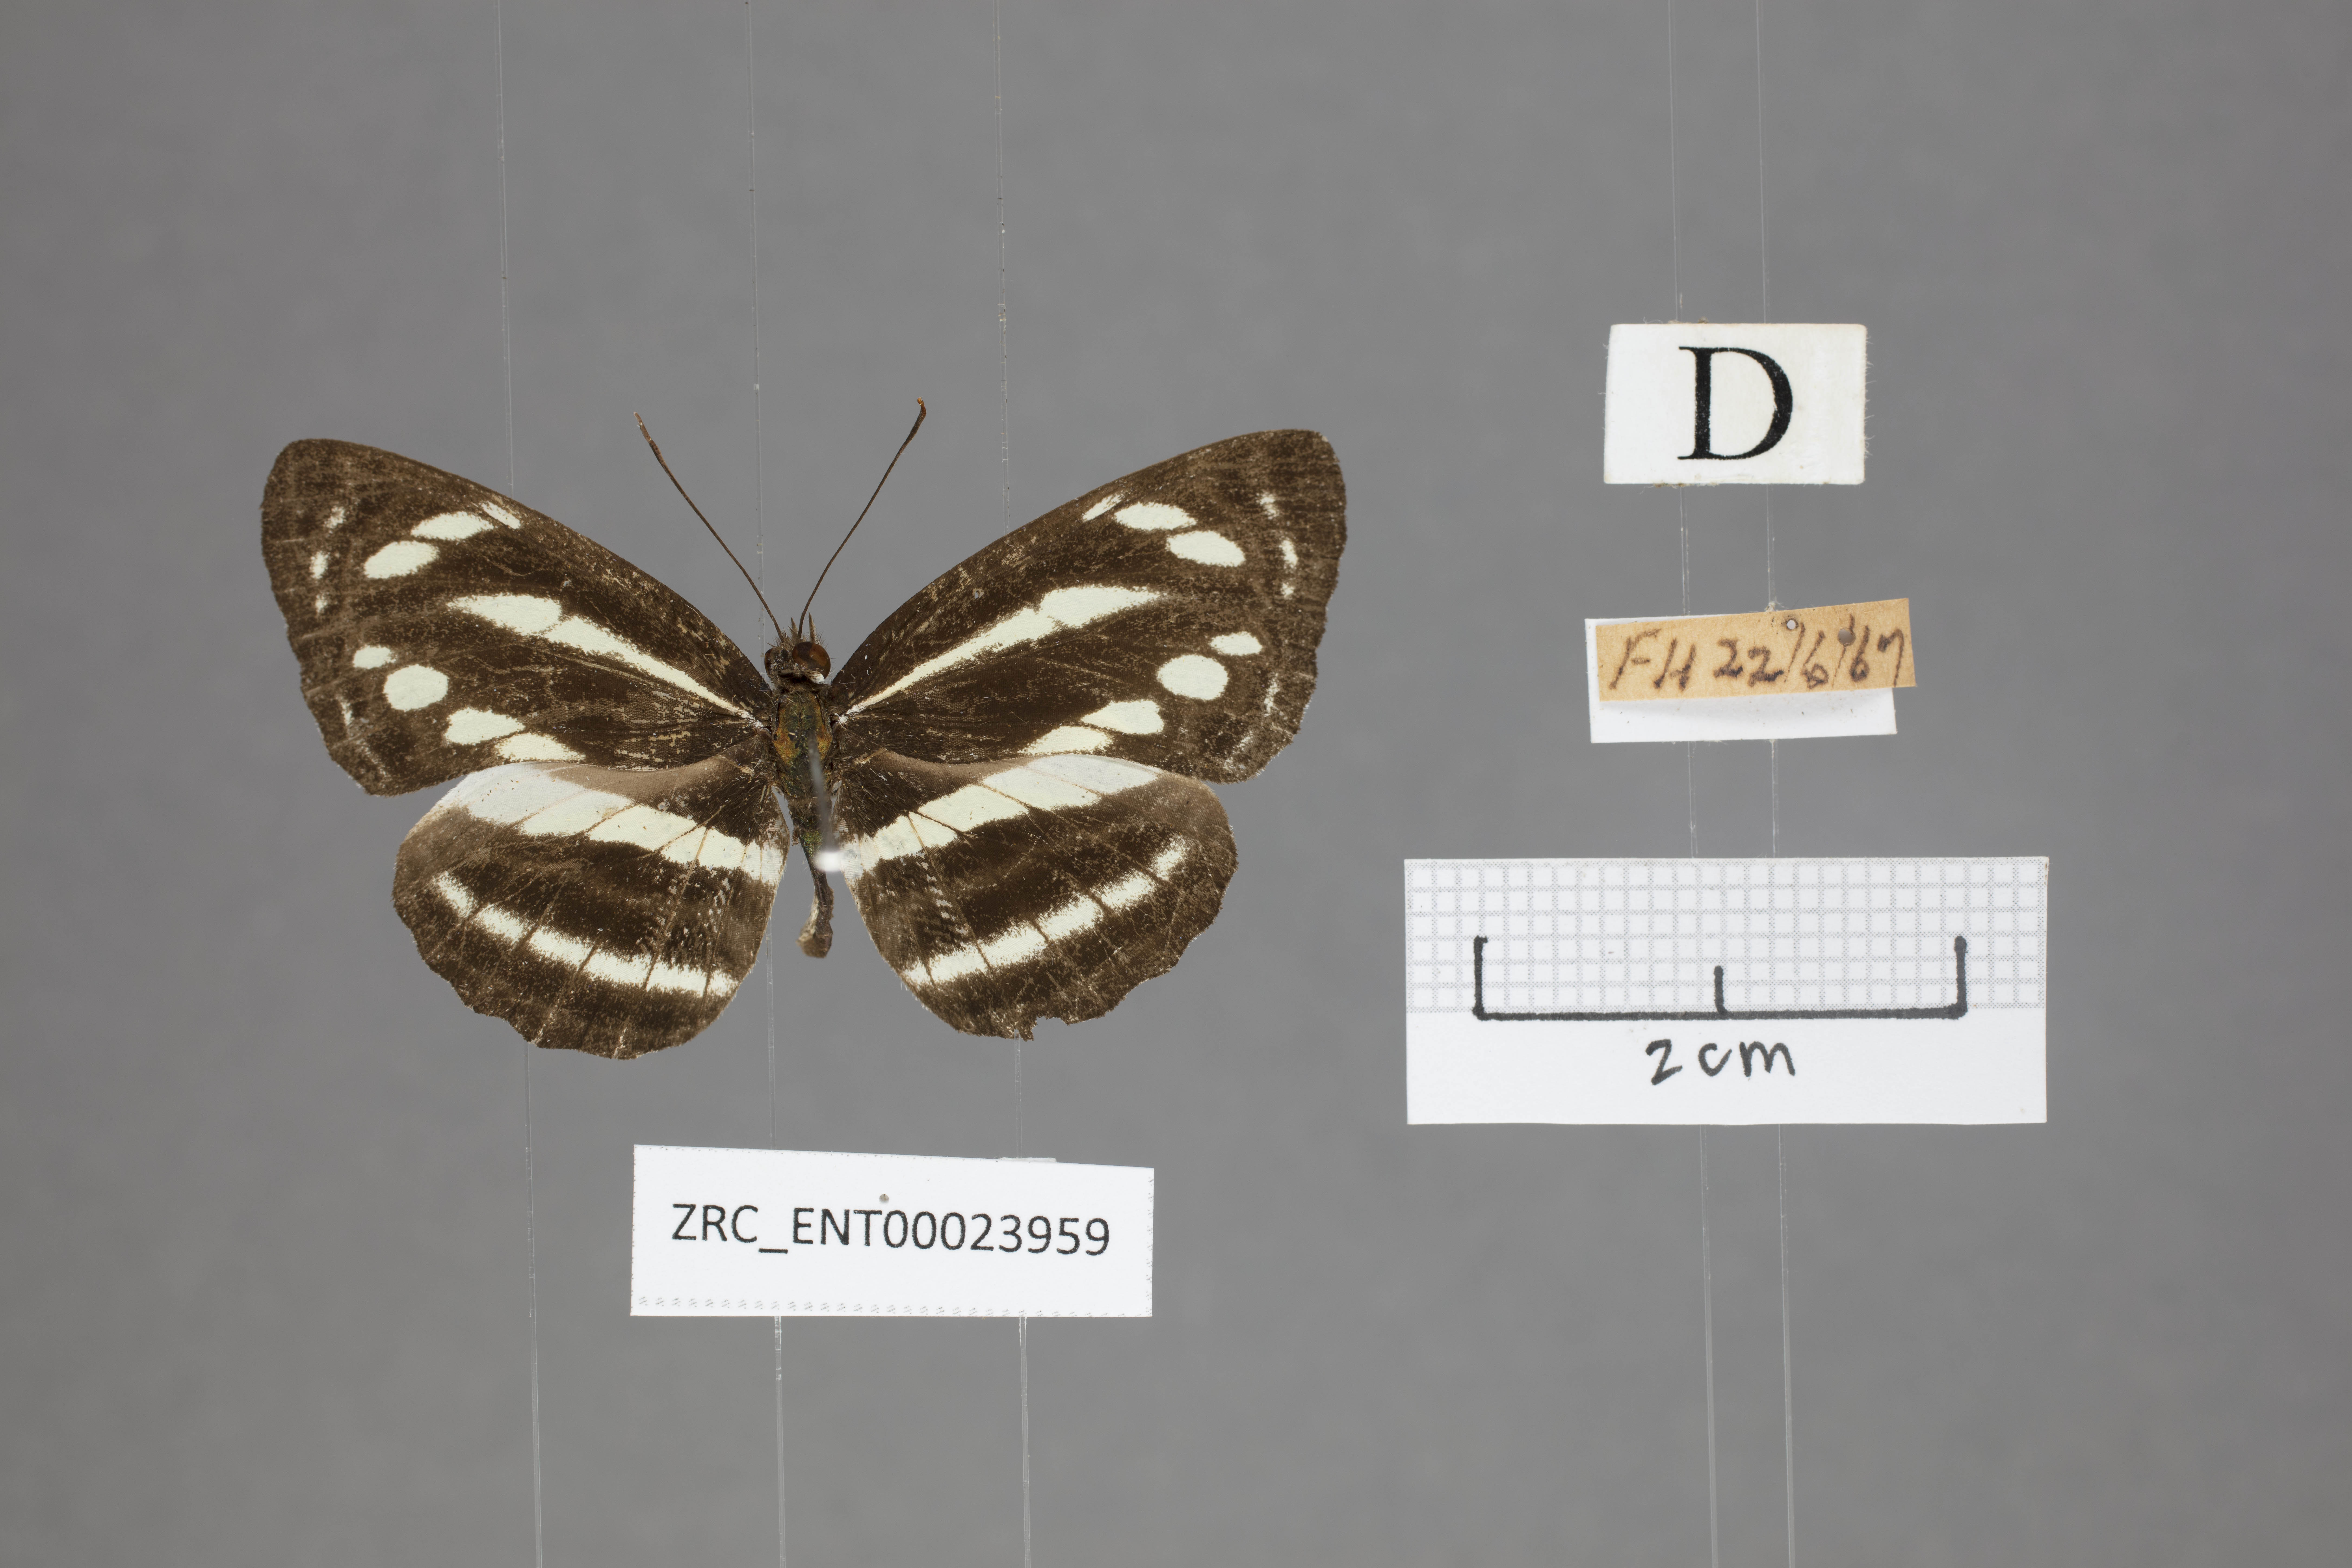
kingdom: Animalia
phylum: Arthropoda
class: Insecta
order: Lepidoptera
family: Nymphalidae
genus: Neptis
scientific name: Neptis clinioides
